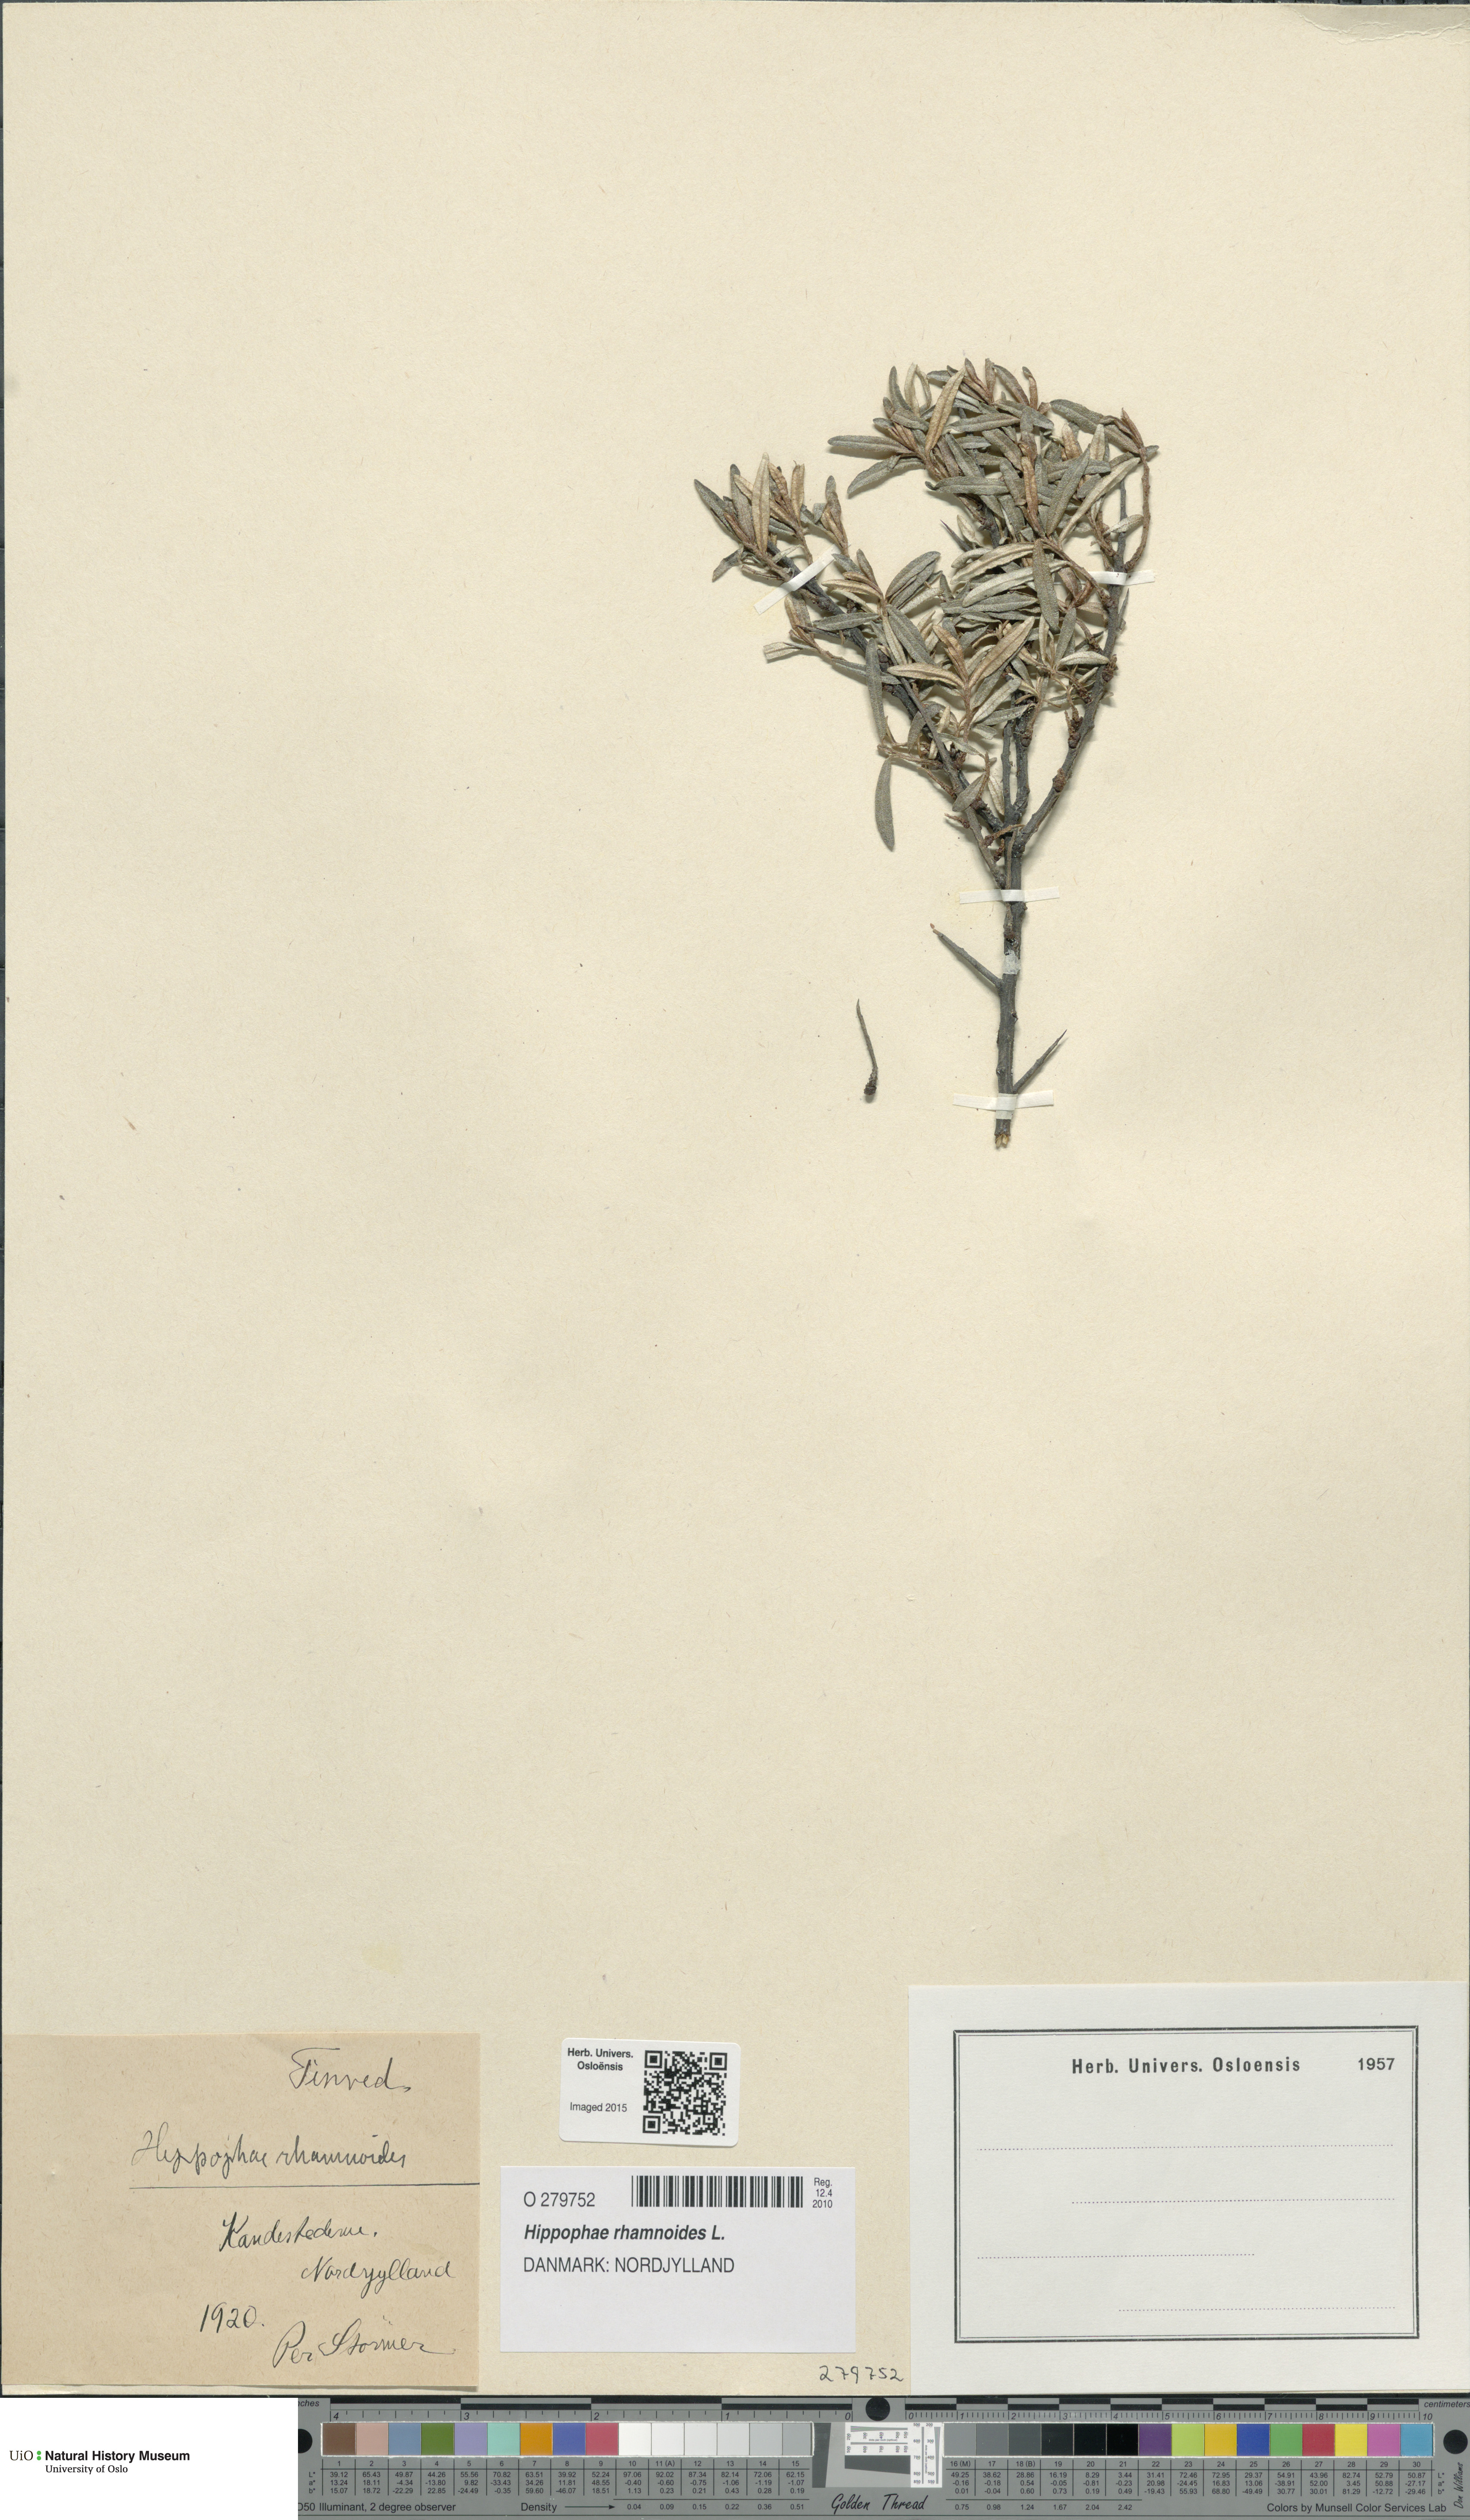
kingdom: Plantae
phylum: Tracheophyta
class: Magnoliopsida
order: Rosales
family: Elaeagnaceae
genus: Hippophae
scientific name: Hippophae rhamnoides
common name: Sea-buckthorn
